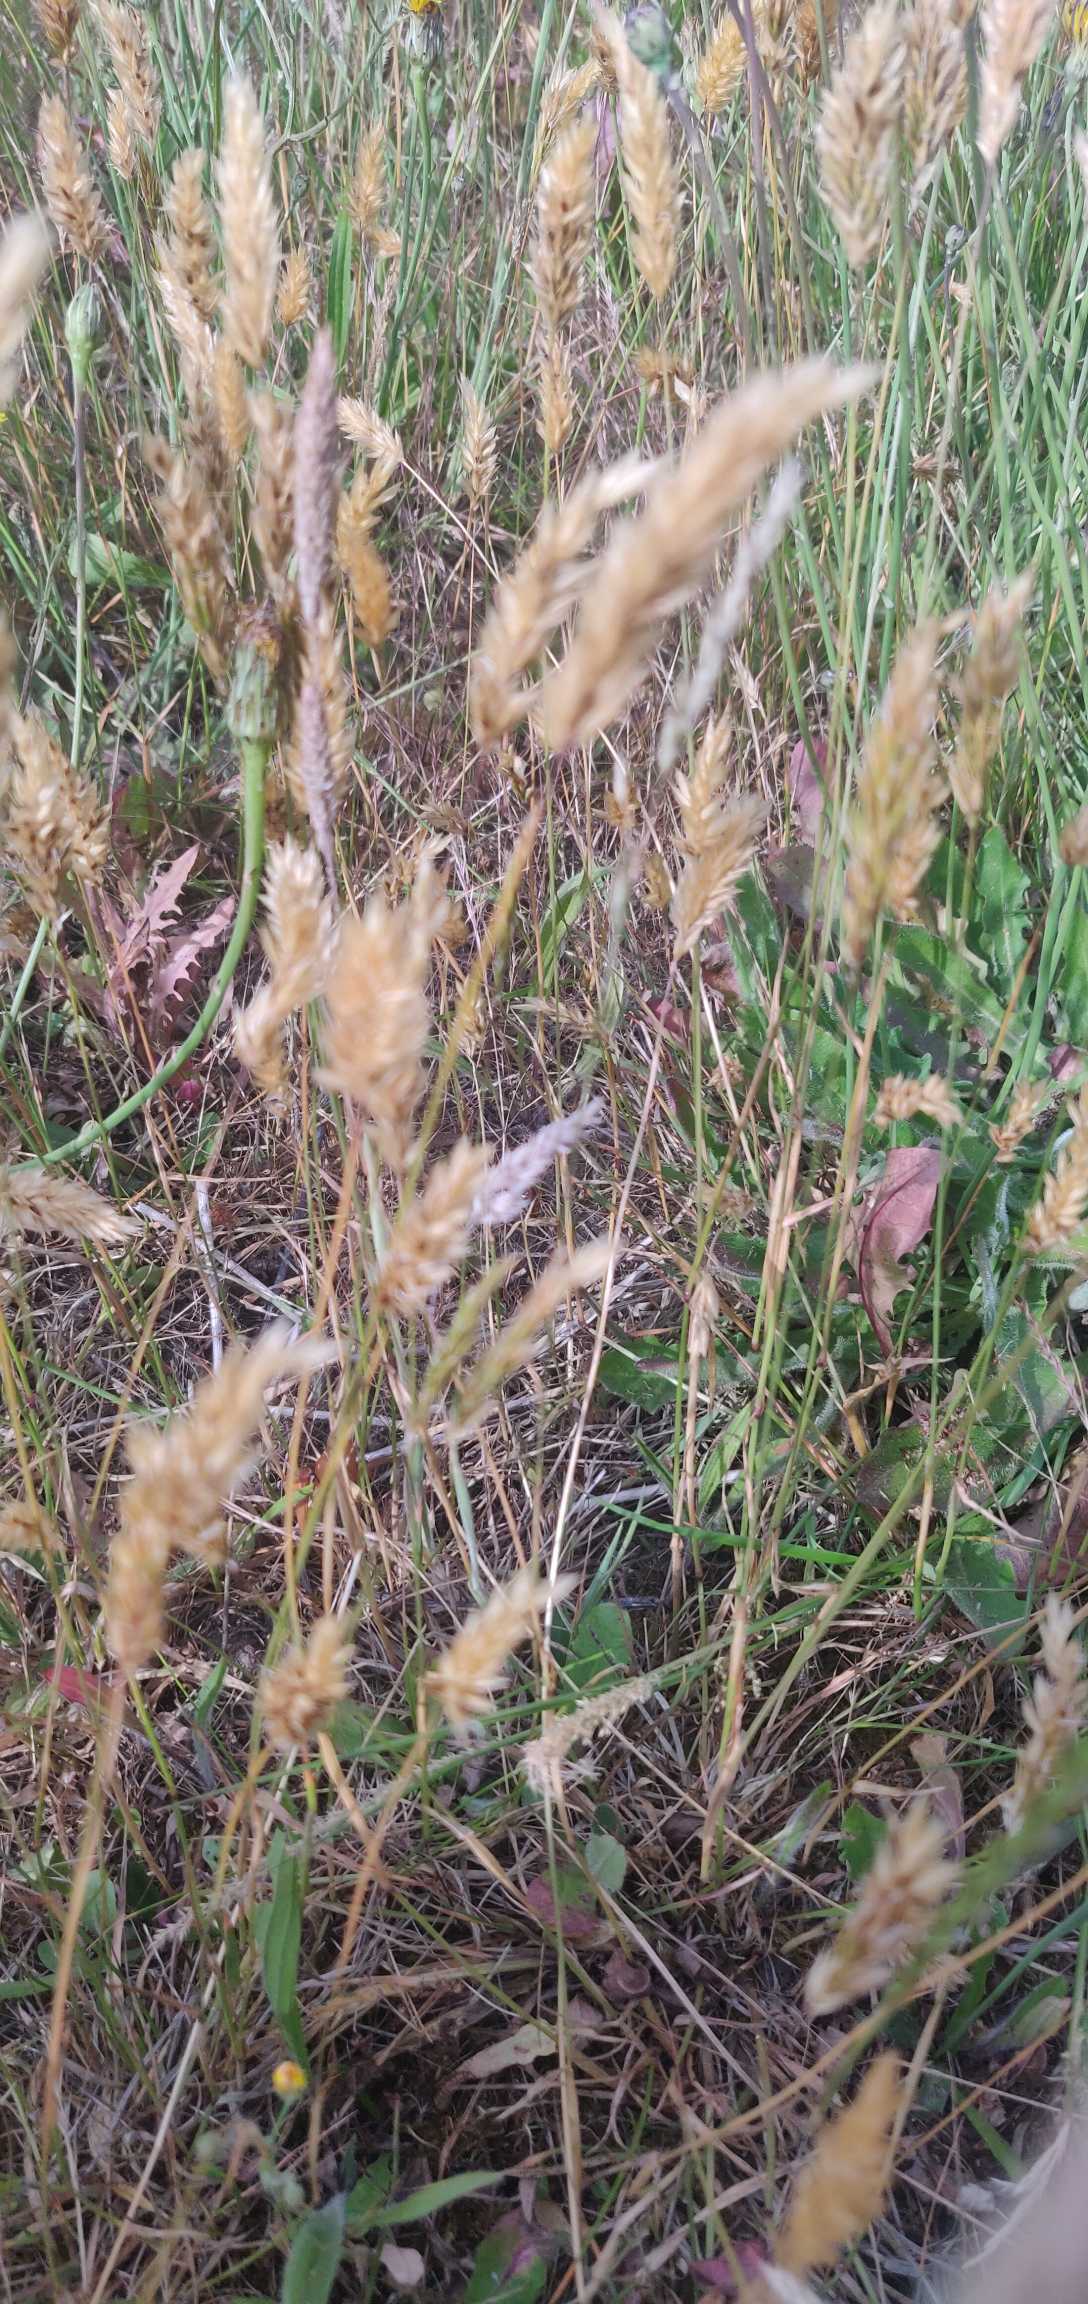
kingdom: Plantae
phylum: Tracheophyta
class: Liliopsida
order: Poales
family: Poaceae
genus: Anthoxanthum
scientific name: Anthoxanthum odoratum
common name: Vellugtende gulaks
